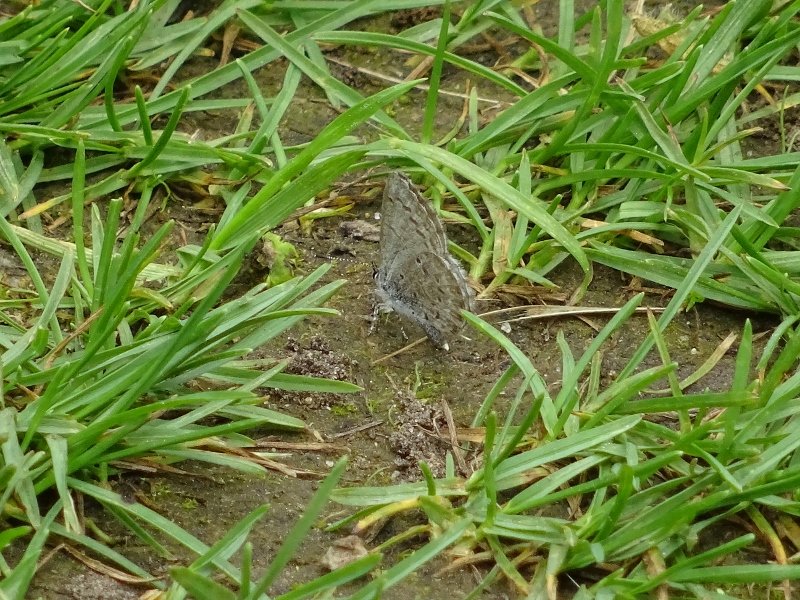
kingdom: Animalia
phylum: Arthropoda
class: Insecta
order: Lepidoptera
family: Lycaenidae
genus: Celastrina
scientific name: Celastrina
